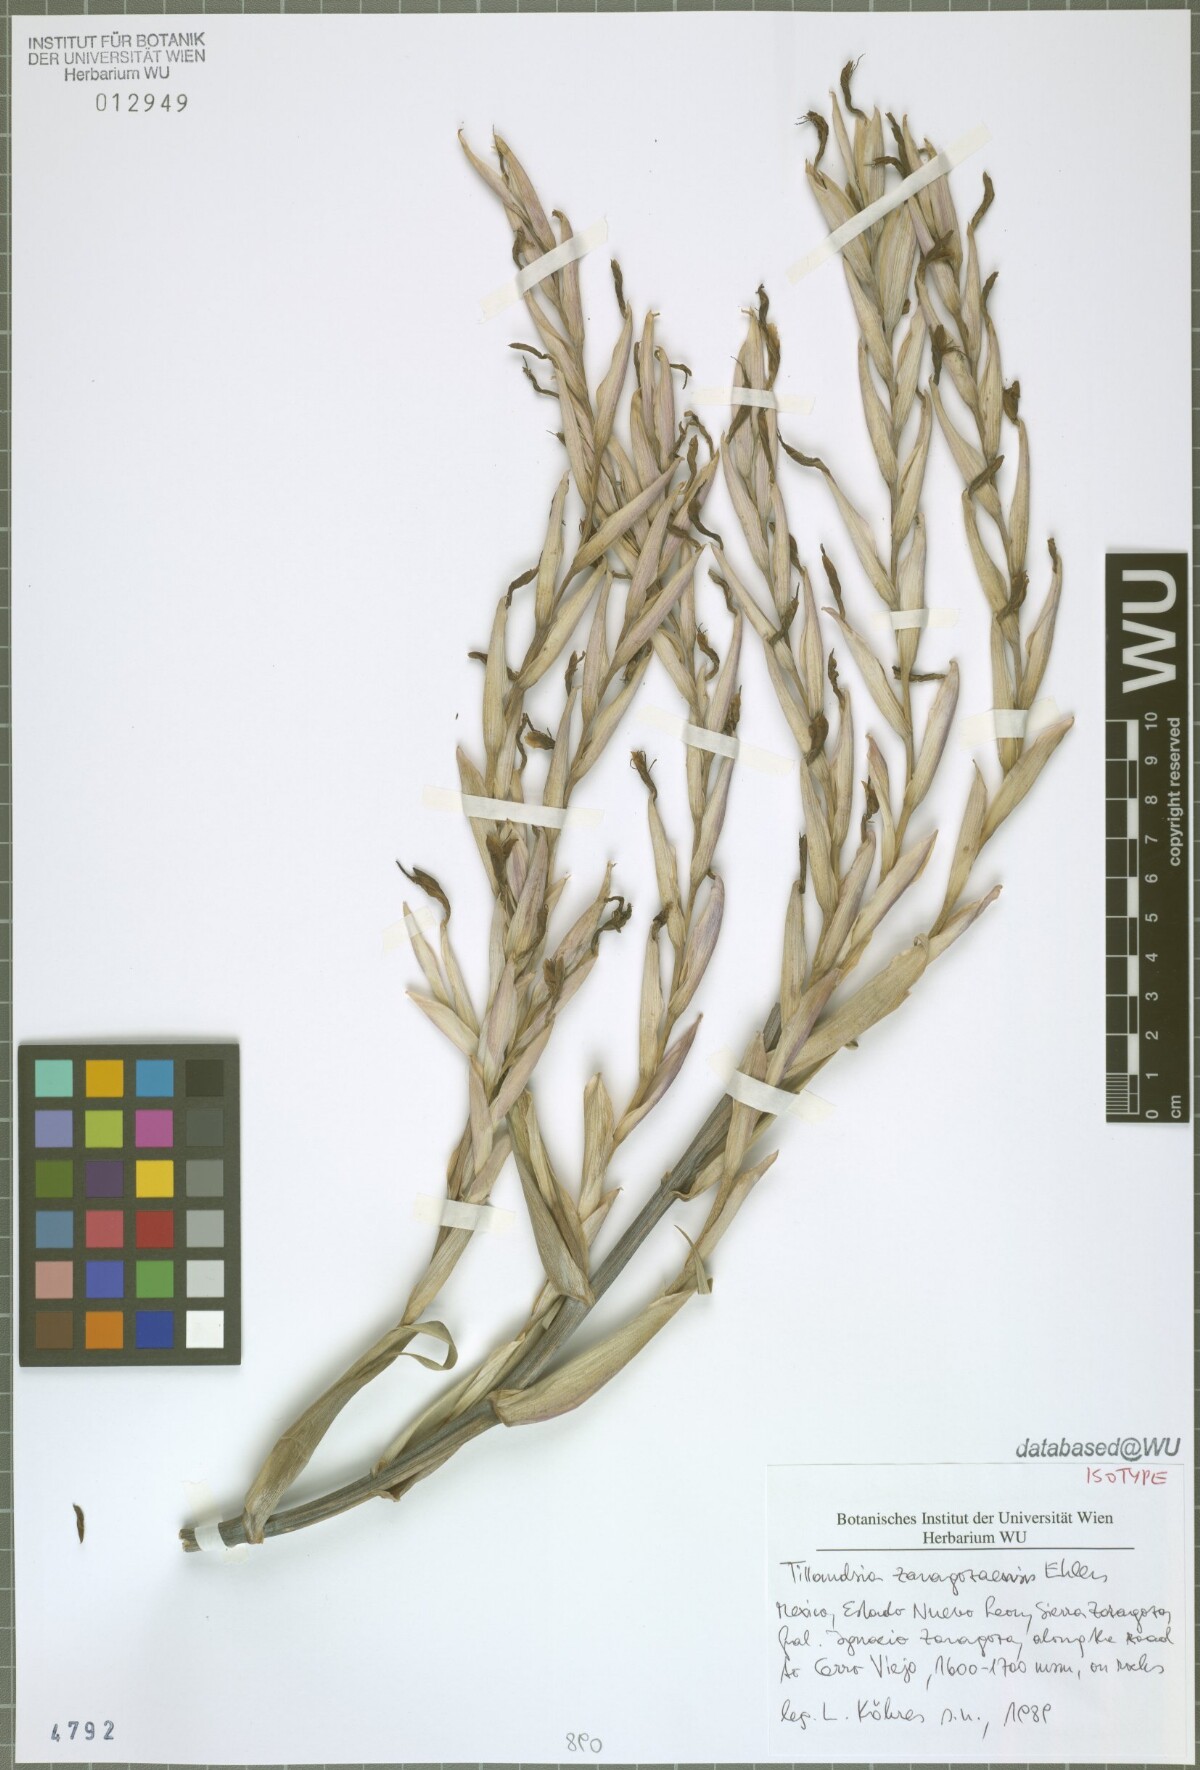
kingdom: Plantae
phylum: Tracheophyta
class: Liliopsida
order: Poales
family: Bromeliaceae
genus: Tillandsia
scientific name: Tillandsia zaragozaensis
